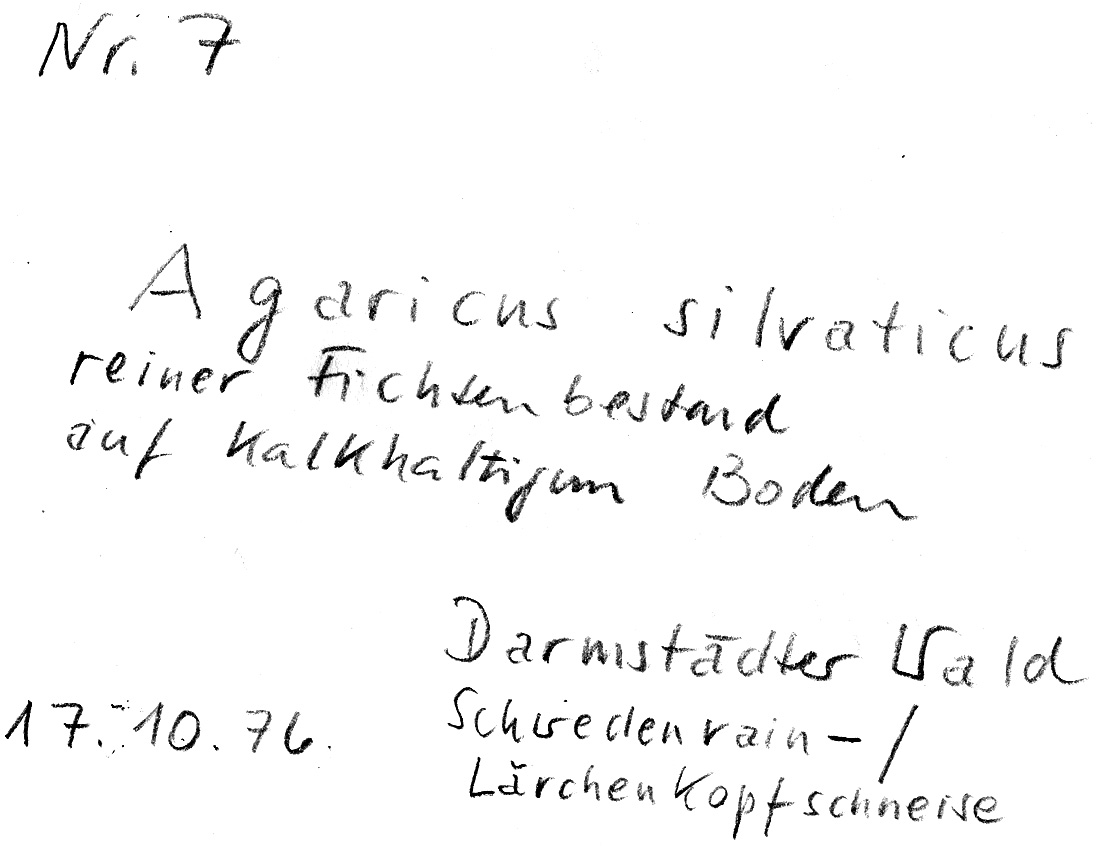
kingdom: Fungi
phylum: Basidiomycota
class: Agaricomycetes
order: Agaricales
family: Agaricaceae
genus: Agaricus
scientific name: Agaricus sylvaticus
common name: Blushing wood mushroom
